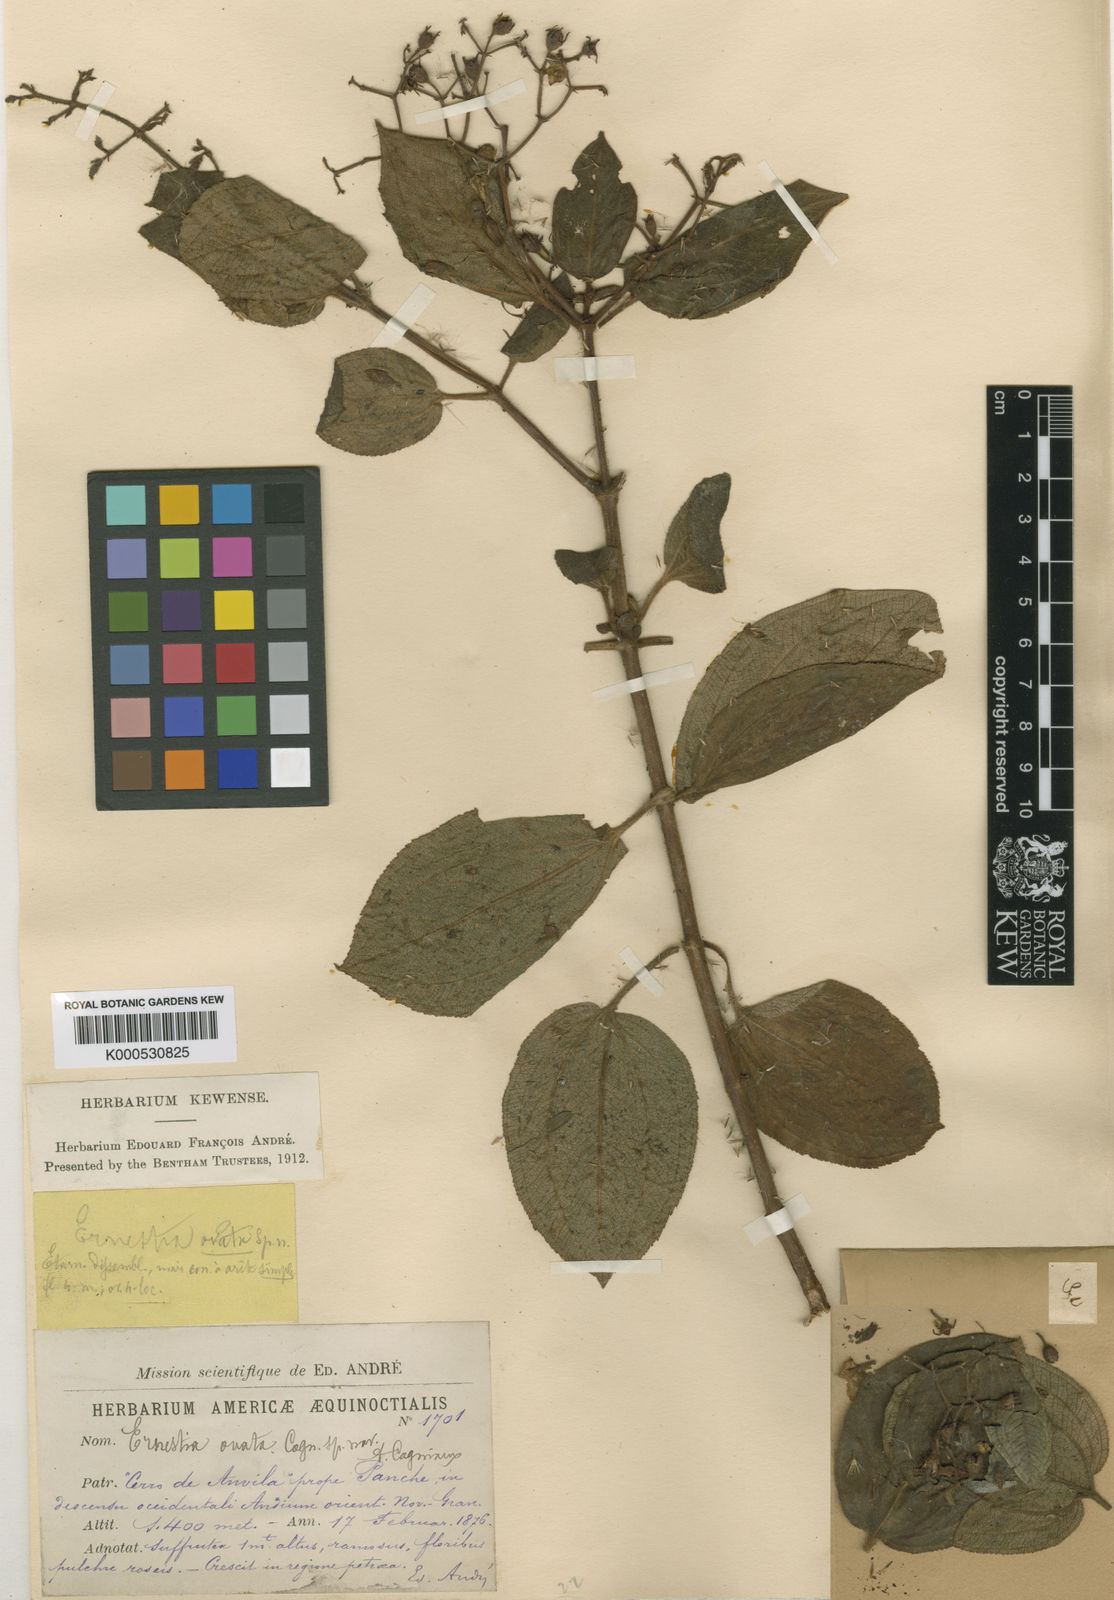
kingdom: Plantae
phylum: Tracheophyta
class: Magnoliopsida
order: Myrtales
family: Melastomataceae
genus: Ernestia
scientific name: Ernestia ovata
